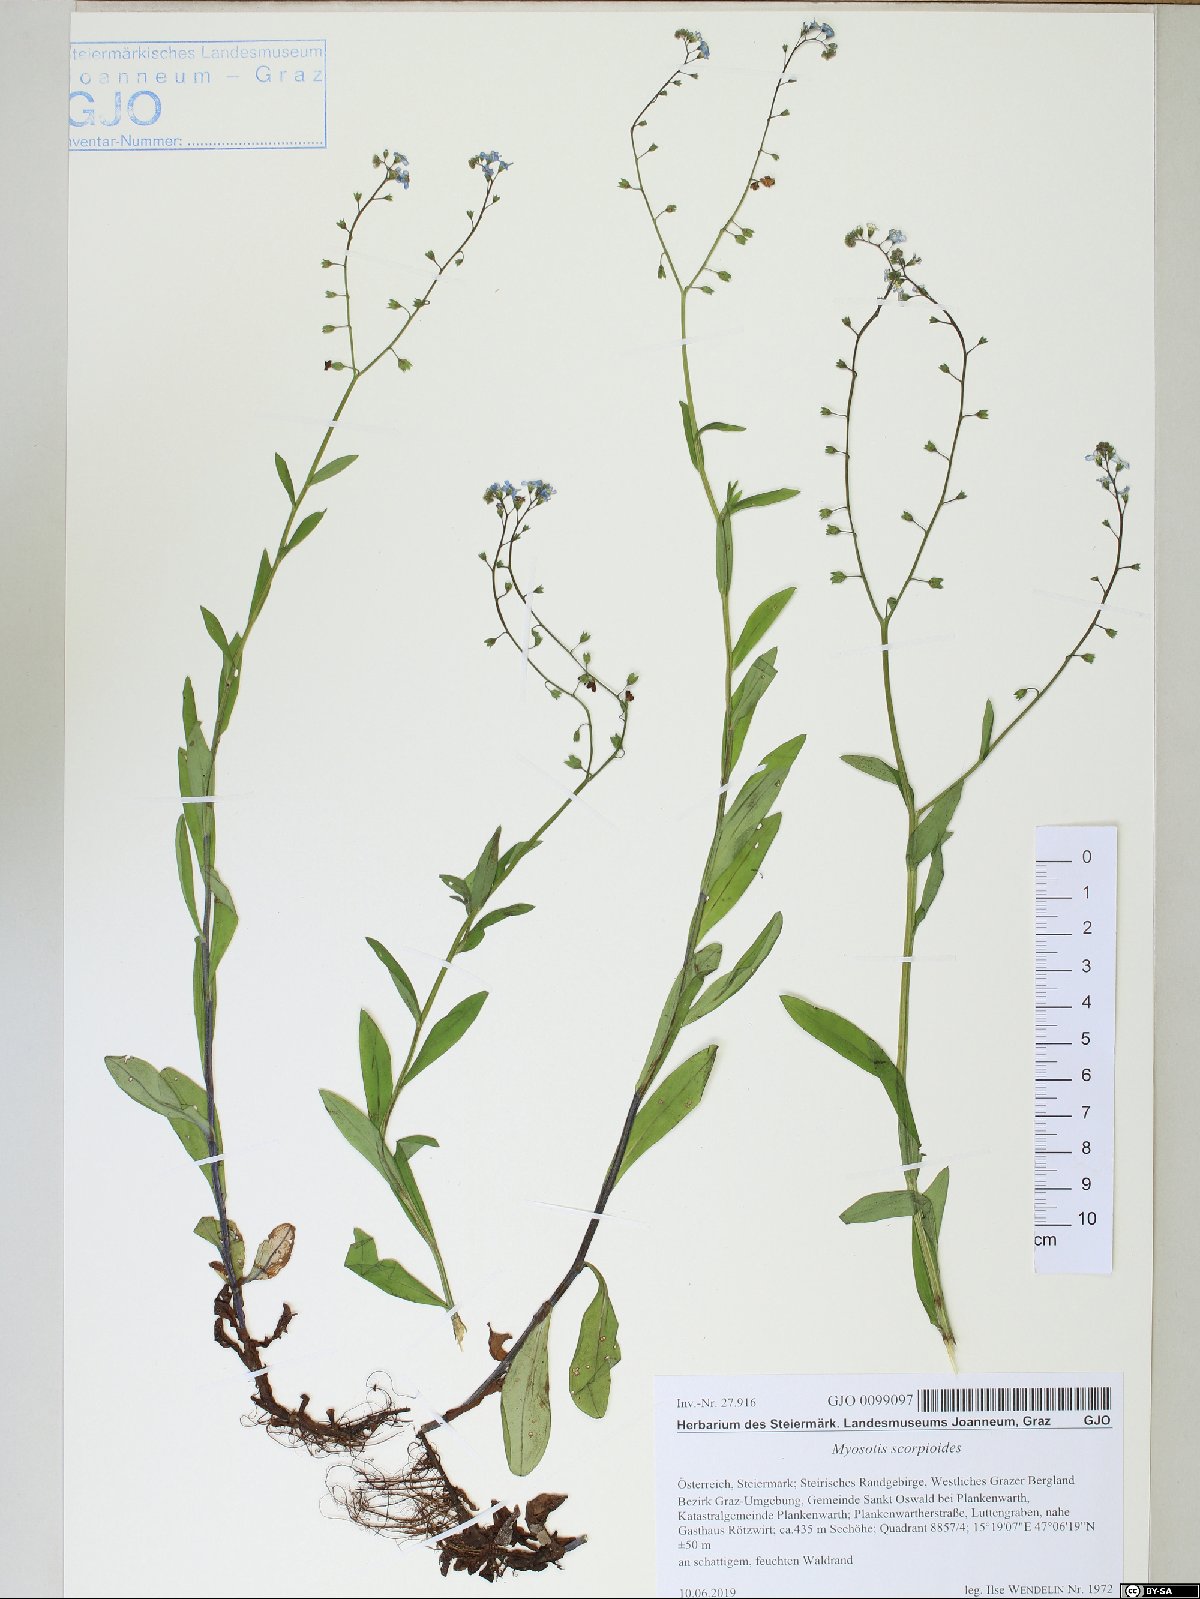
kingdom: Plantae
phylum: Tracheophyta
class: Magnoliopsida
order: Boraginales
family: Boraginaceae
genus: Myosotis
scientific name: Myosotis scorpioides
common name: Water forget-me-not
